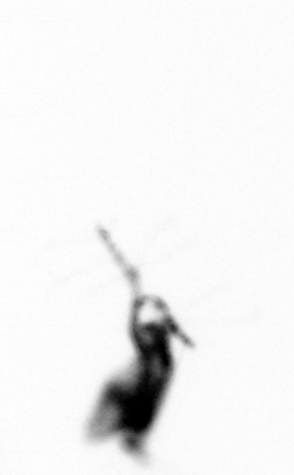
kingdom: Animalia
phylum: Arthropoda
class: Copepoda
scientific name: Copepoda
